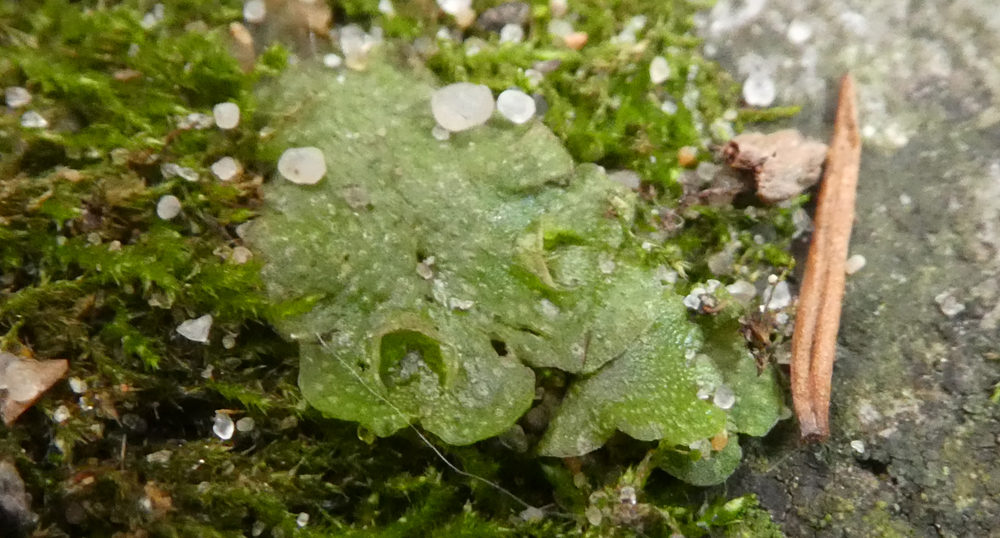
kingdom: Plantae
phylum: Marchantiophyta
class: Marchantiopsida
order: Lunulariales
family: Lunulariaceae
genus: Lunularia
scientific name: Lunularia cruciata
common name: Crescent-cup liverwort
